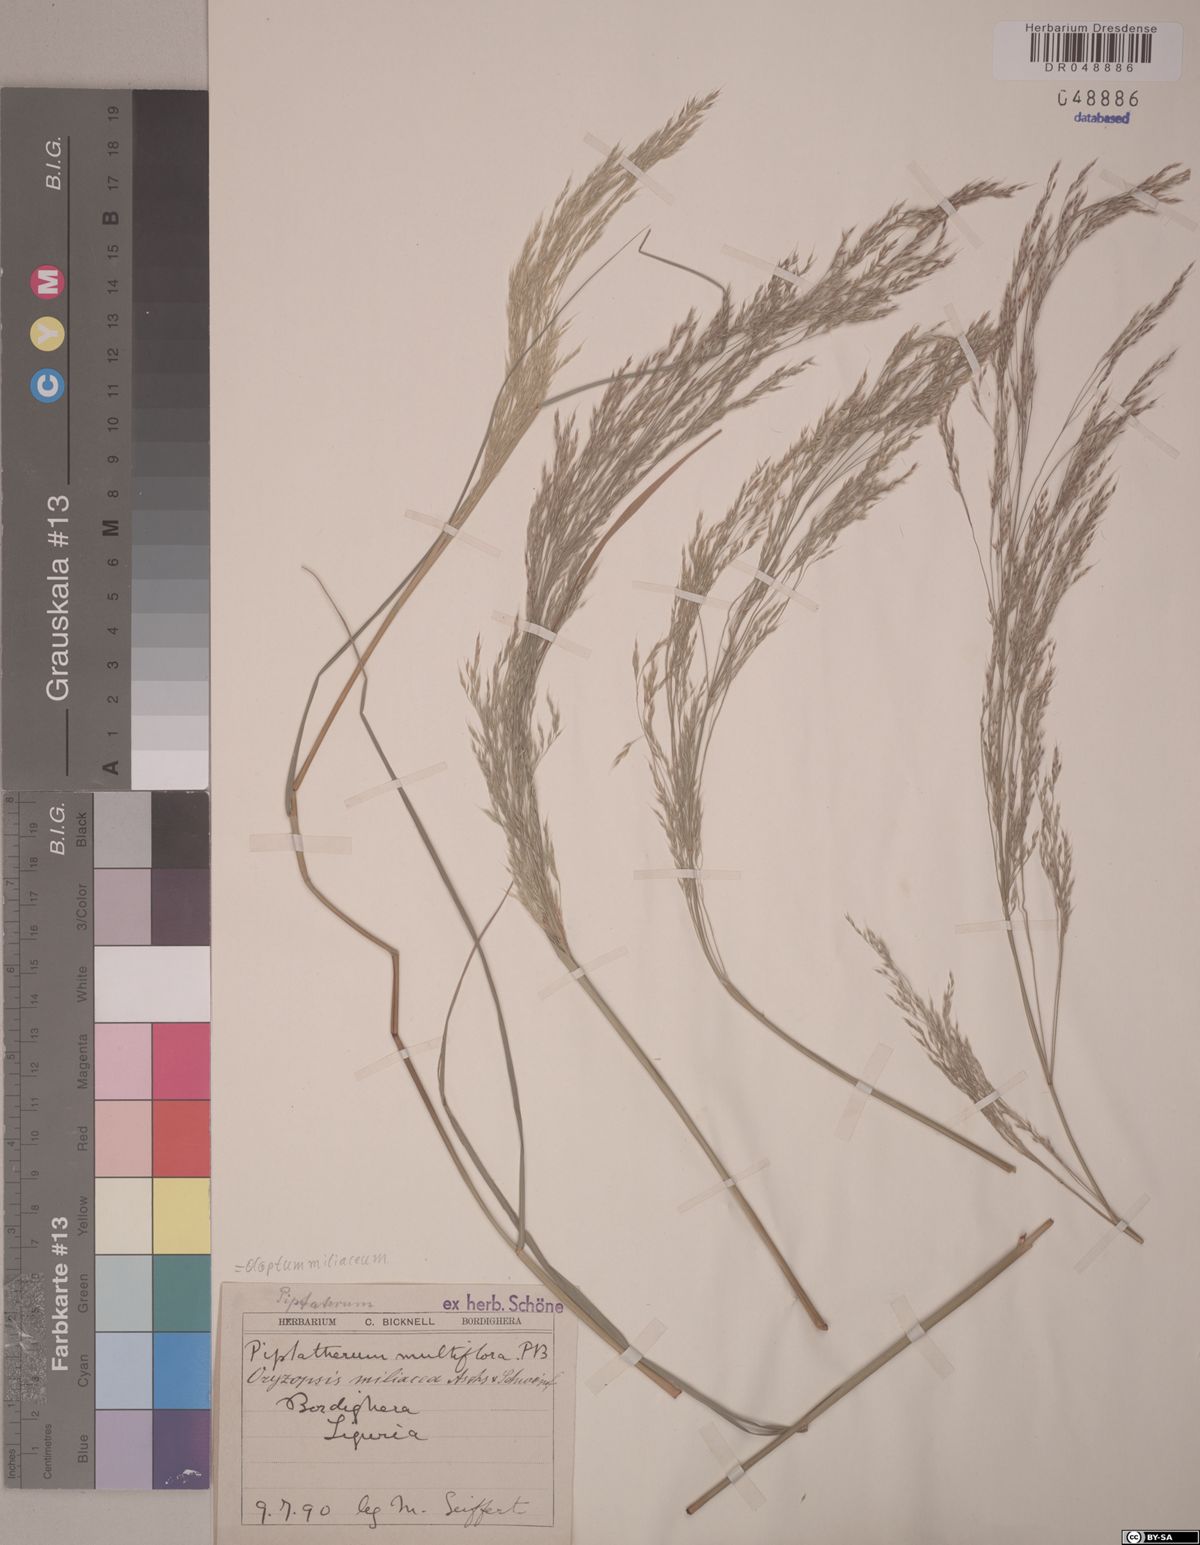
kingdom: Plantae
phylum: Tracheophyta
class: Liliopsida
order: Poales
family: Poaceae
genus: Oloptum
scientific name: Oloptum miliaceum
